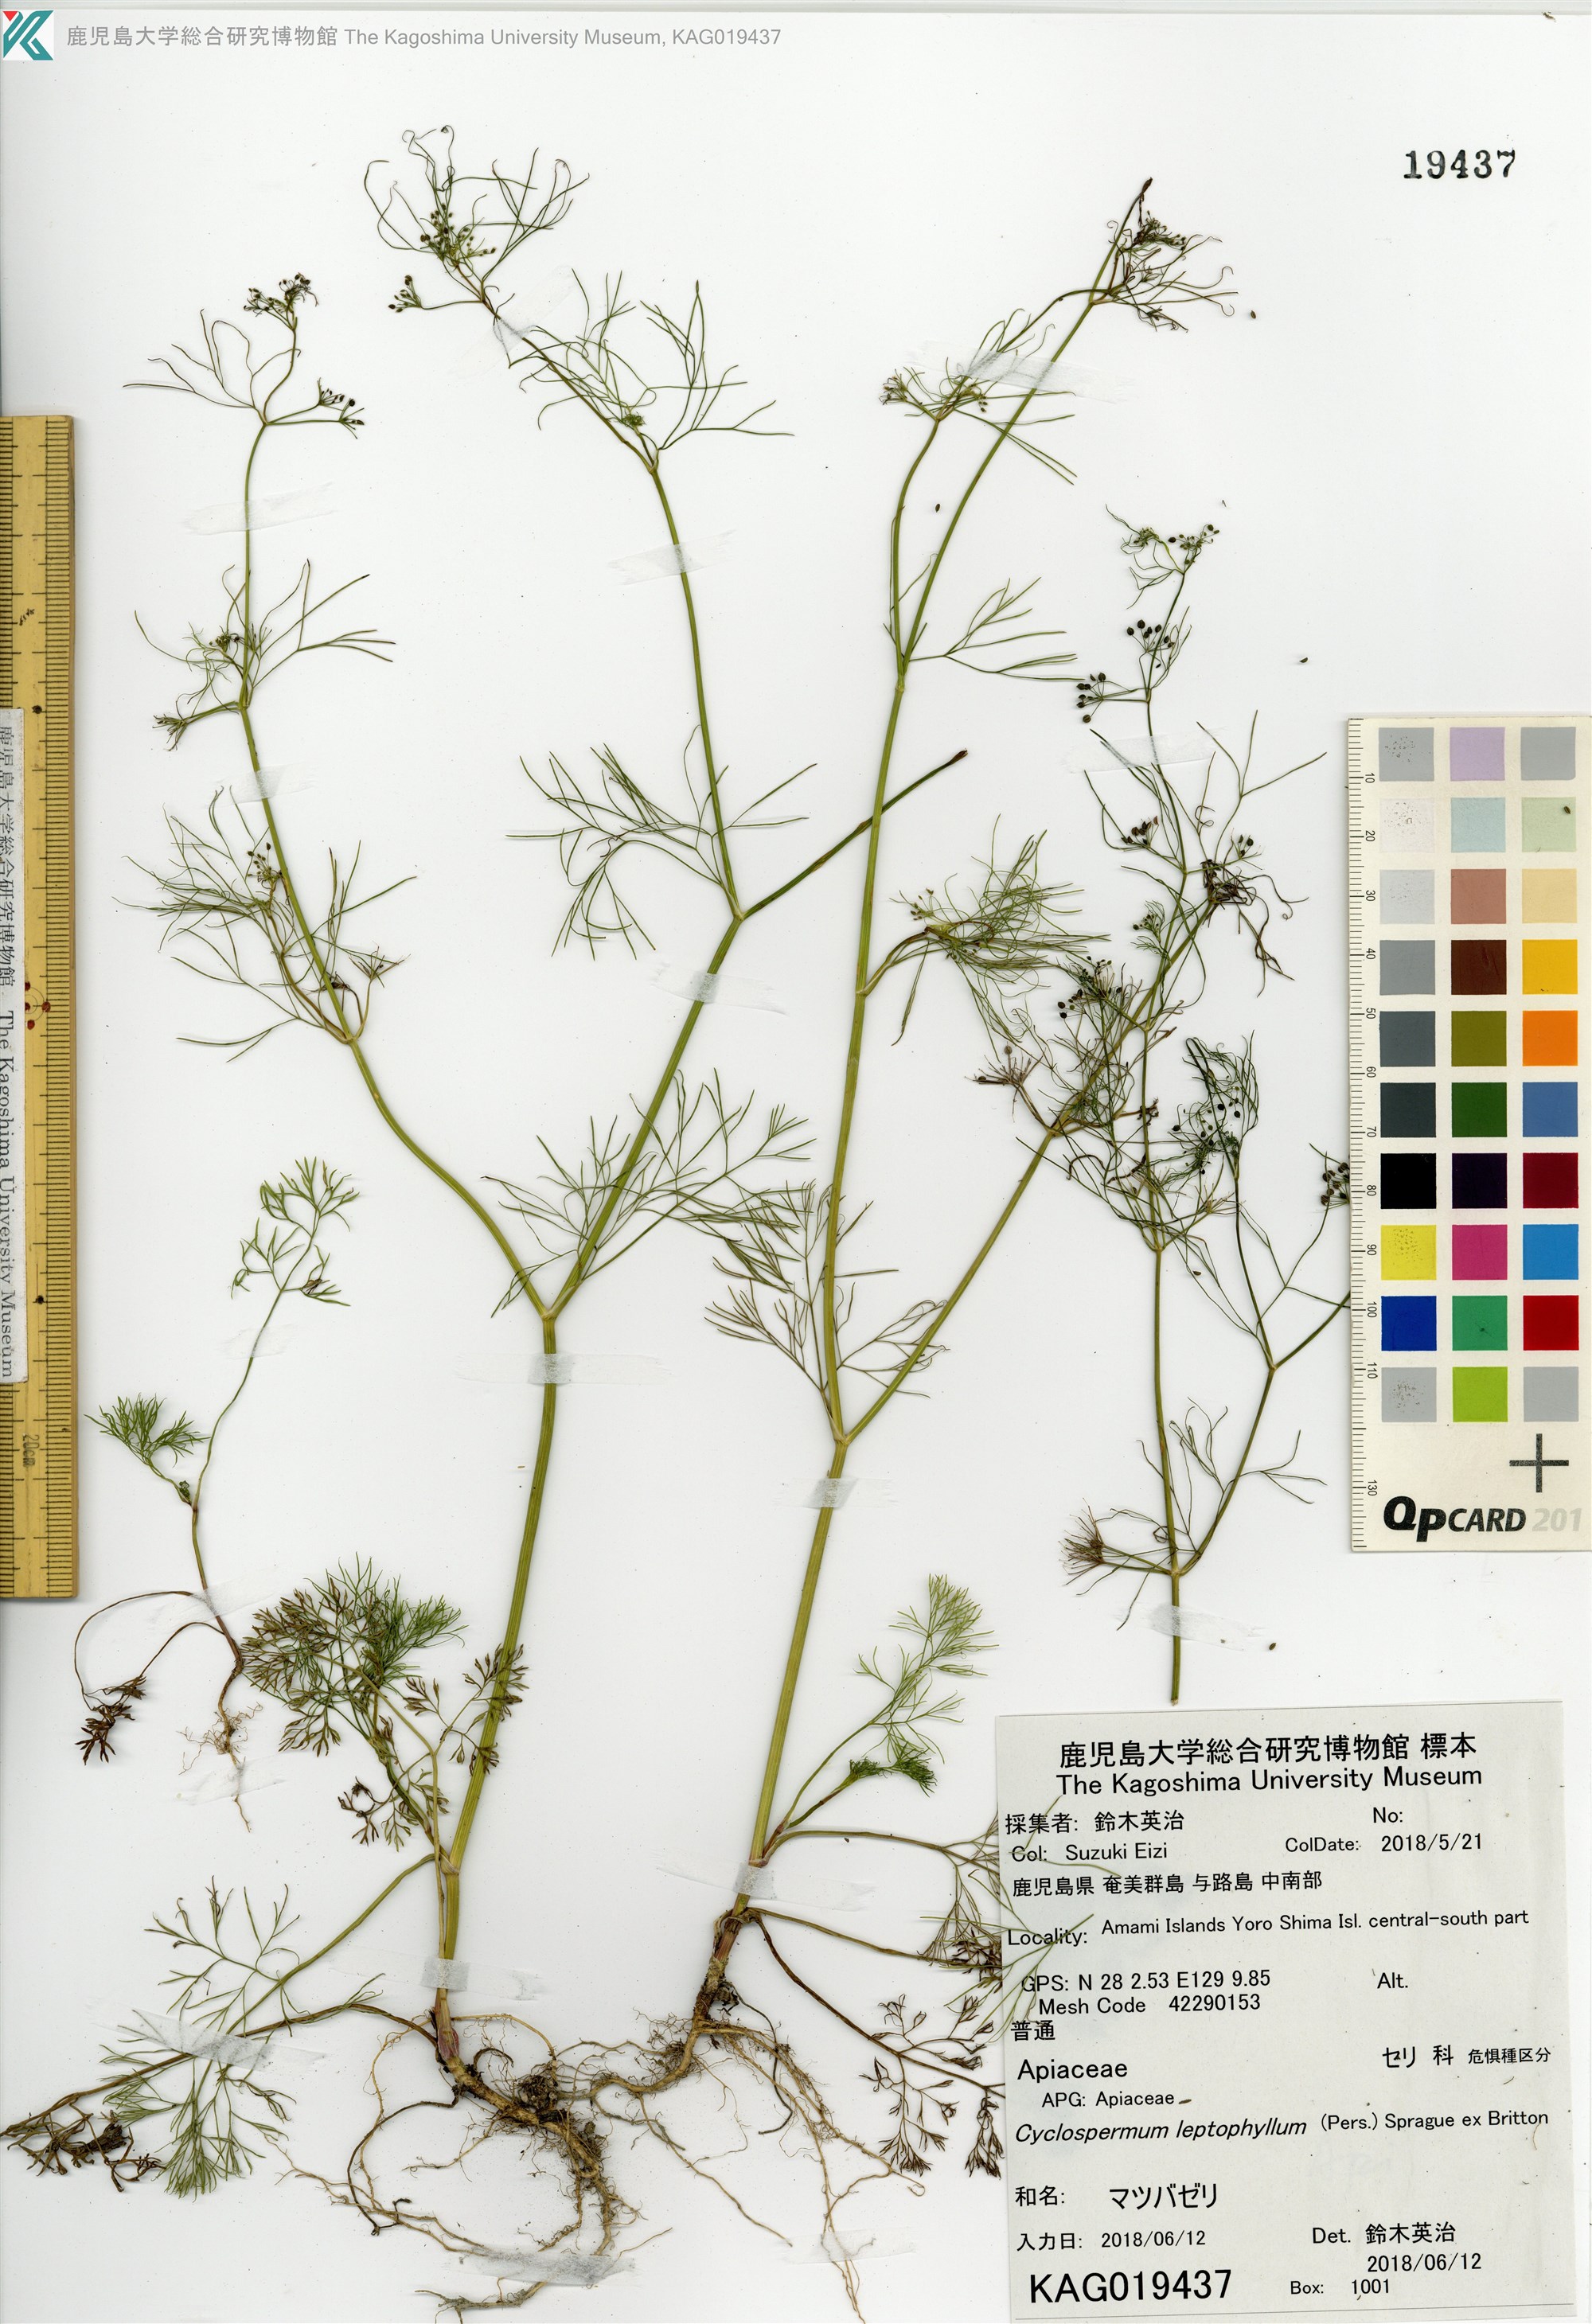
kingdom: Plantae
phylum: Tracheophyta
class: Magnoliopsida
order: Apiales
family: Apiaceae
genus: Cyclospermum
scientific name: Cyclospermum leptophyllum
